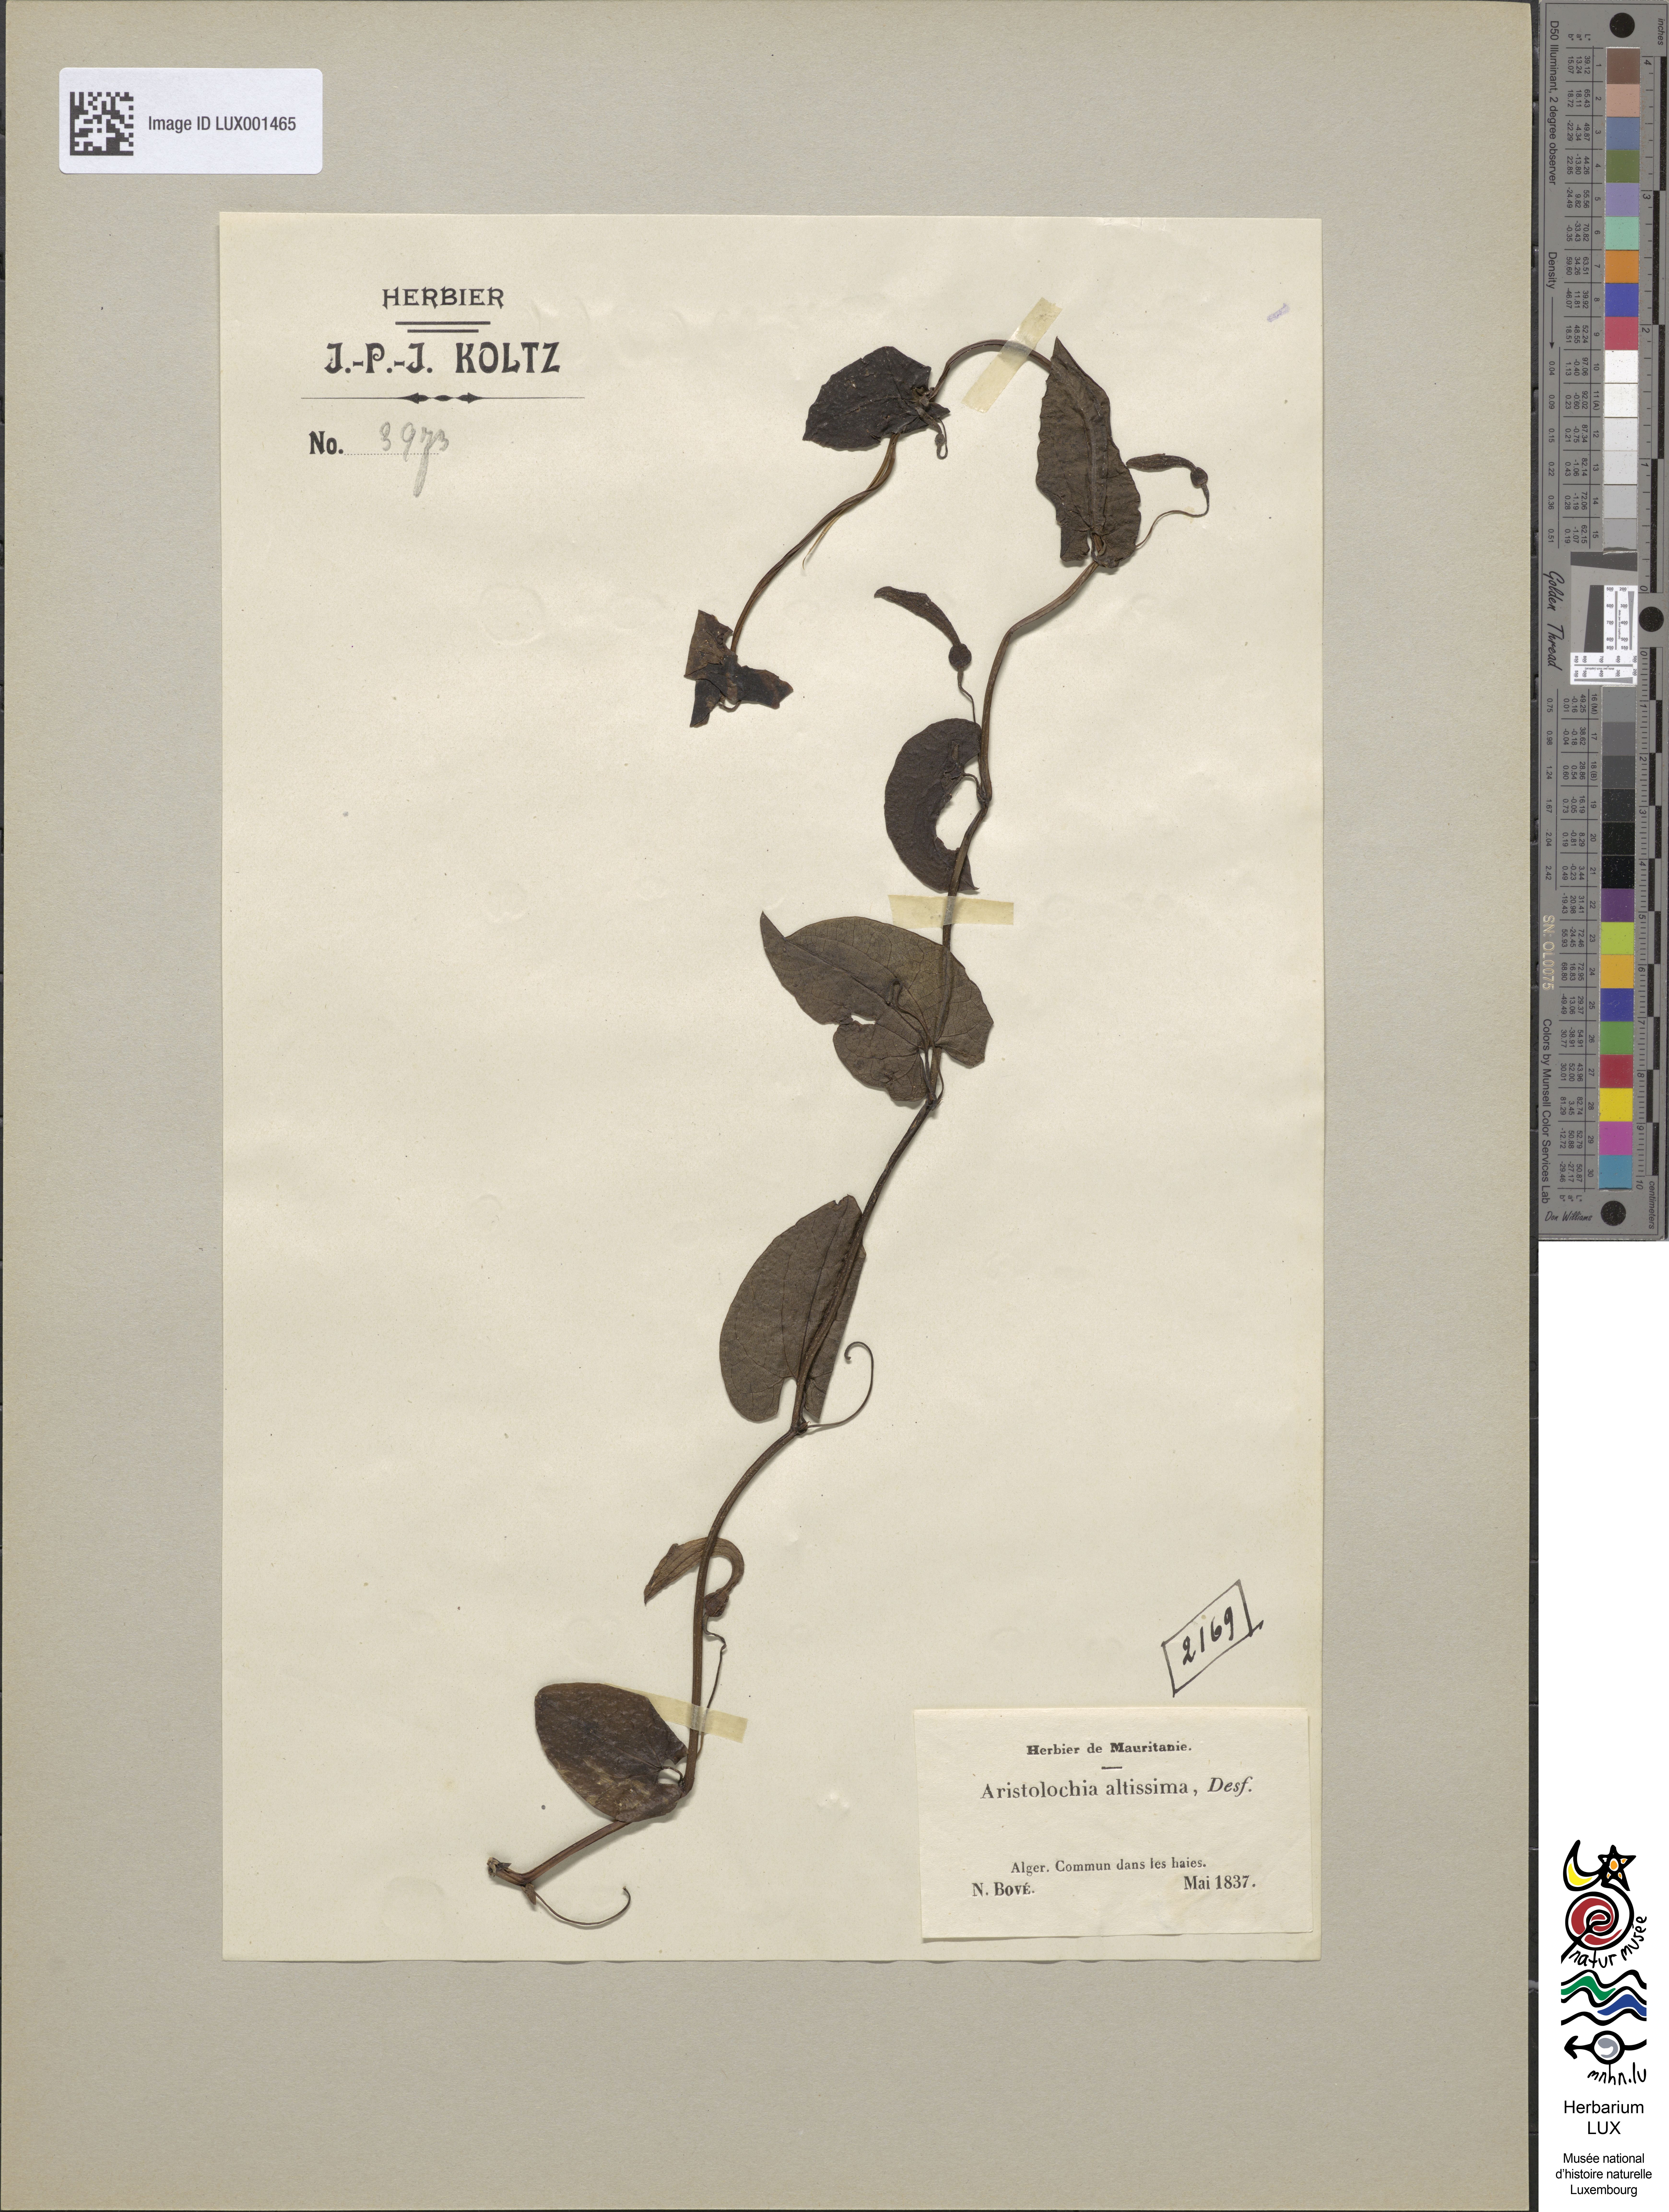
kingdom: Plantae
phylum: Tracheophyta
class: Magnoliopsida
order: Piperales
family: Aristolochiaceae
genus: Aristolochia
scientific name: Aristolochia sempervirens
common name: Long birthwort
